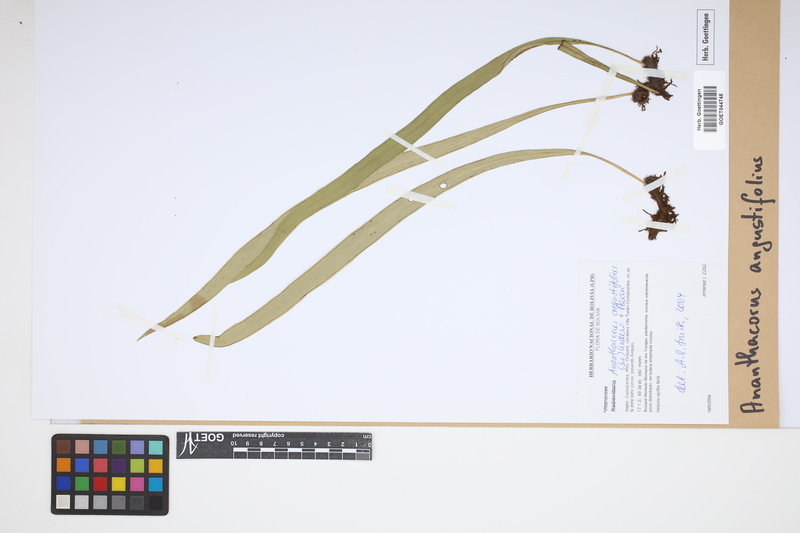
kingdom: Plantae
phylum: Tracheophyta
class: Polypodiopsida
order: Polypodiales
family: Pteridaceae
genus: Ananthacorus
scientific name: Ananthacorus angustifolius
